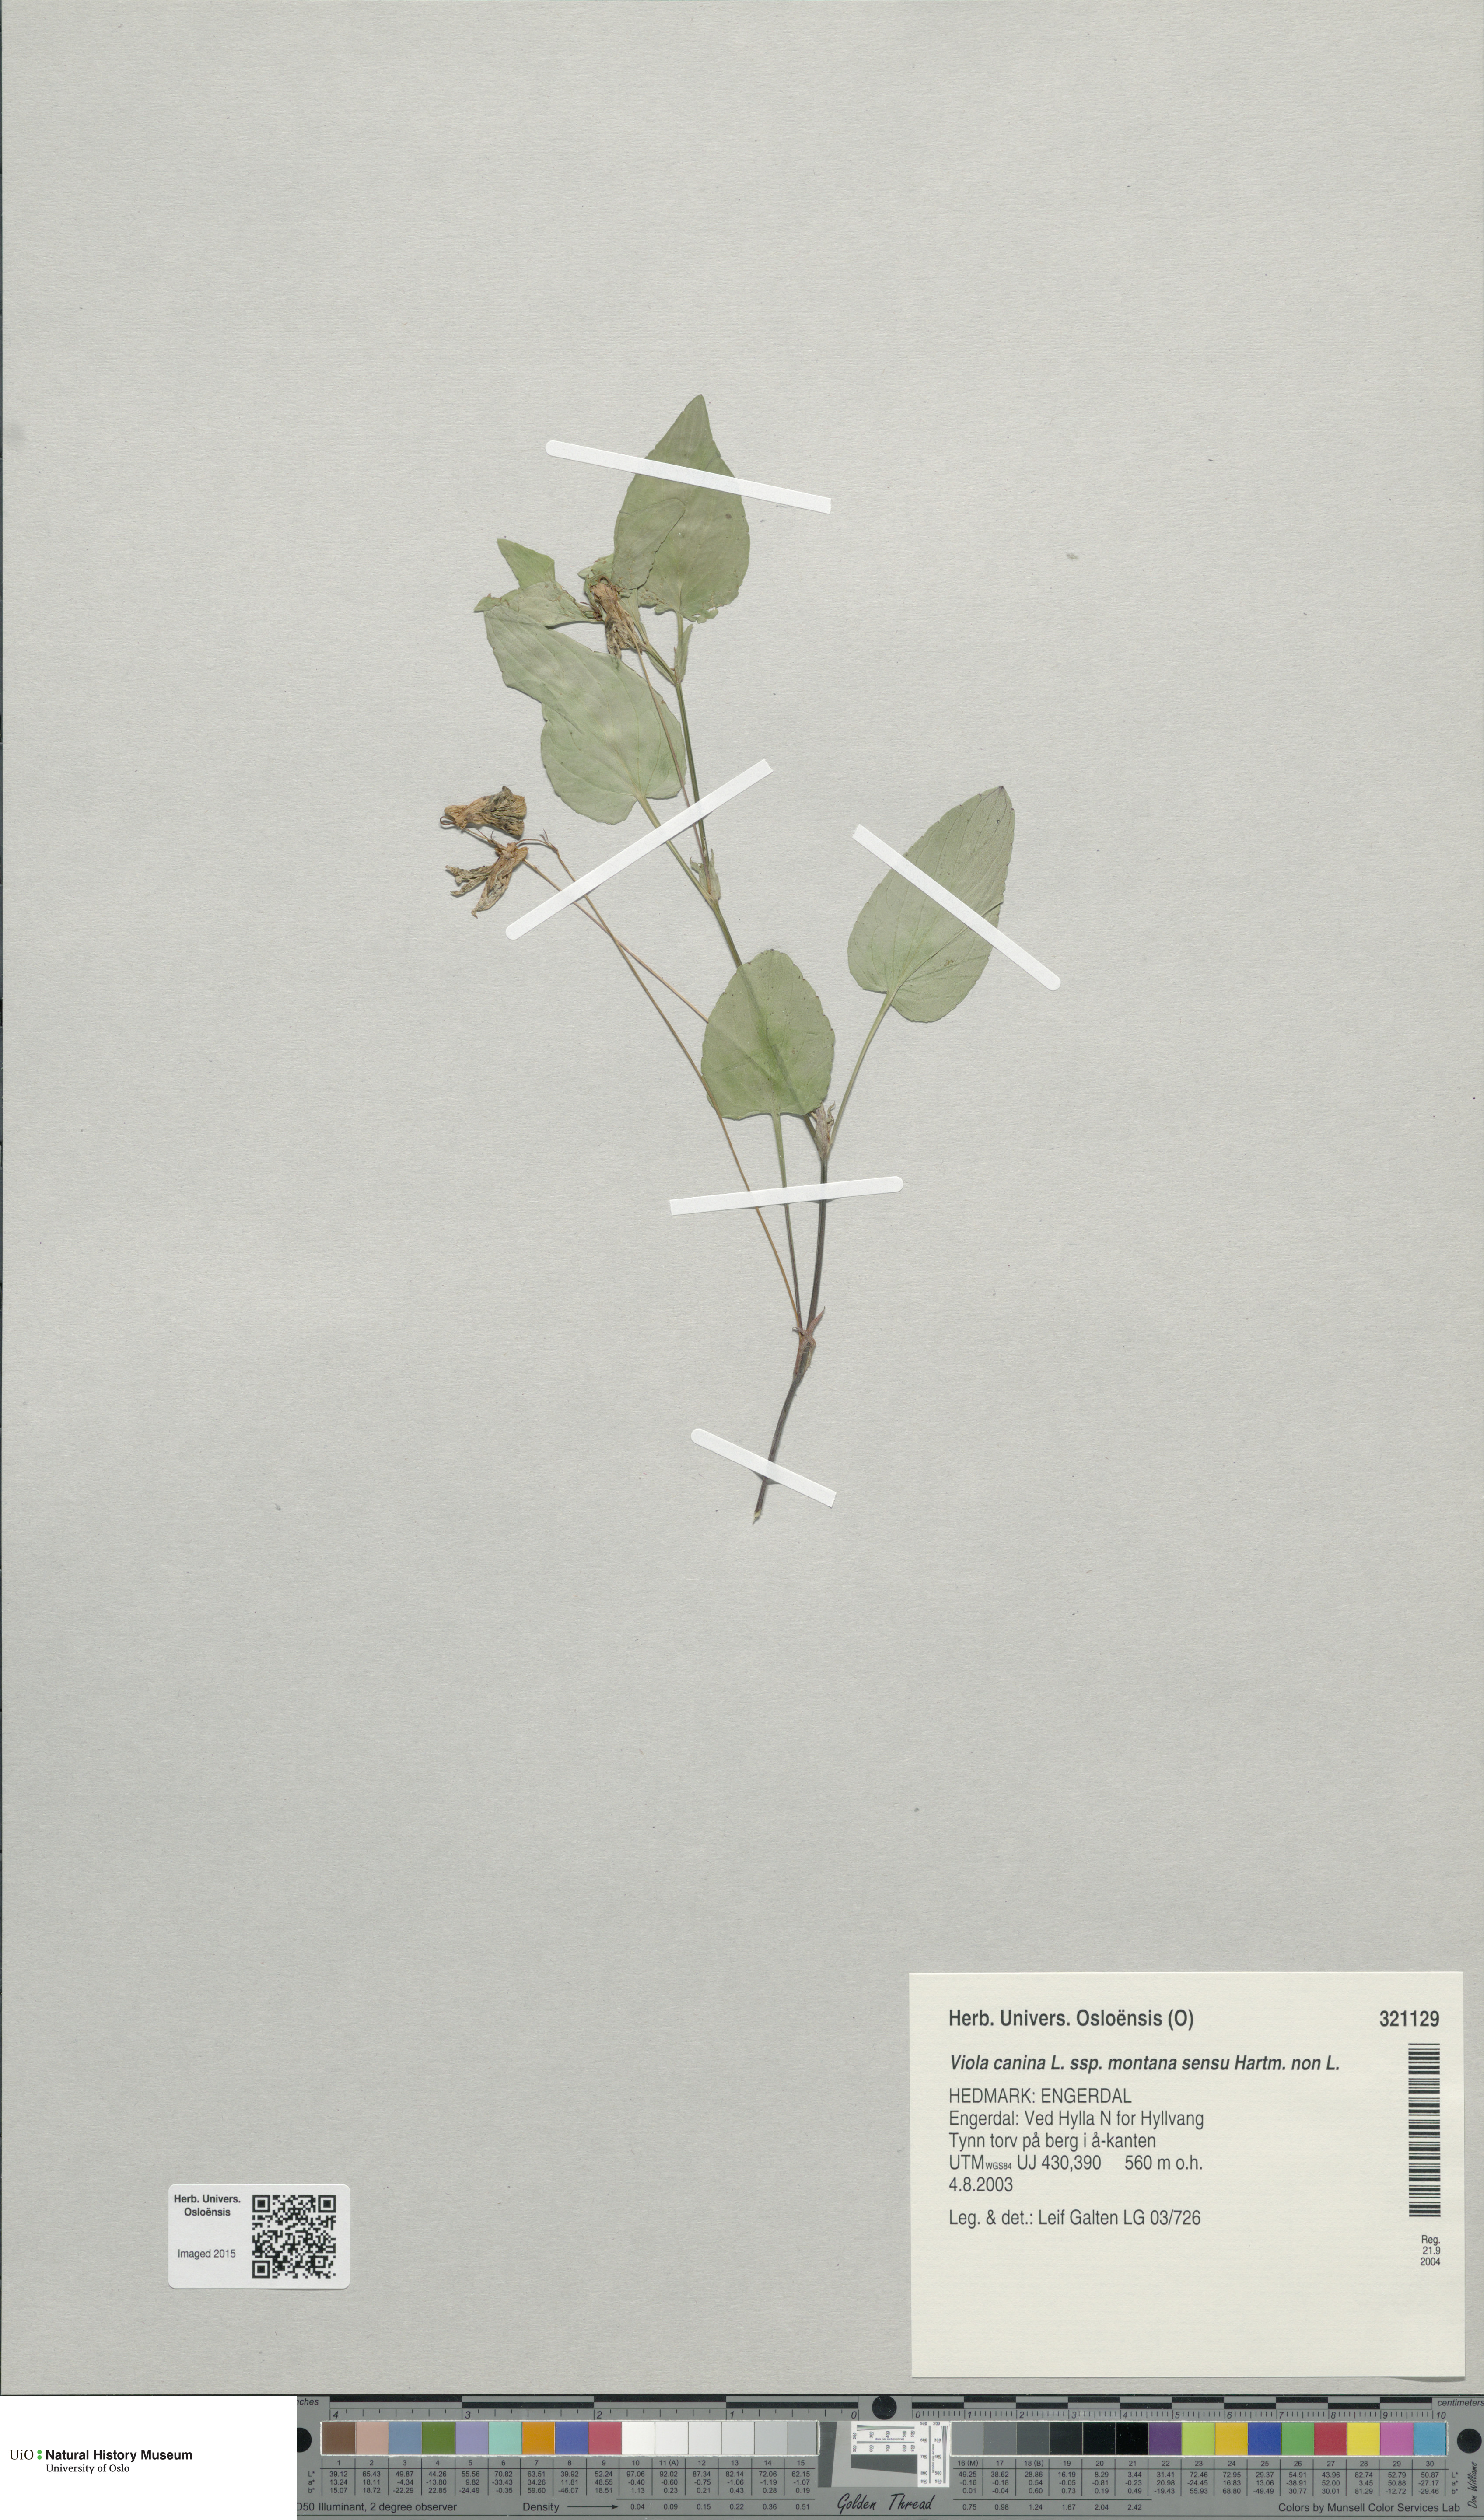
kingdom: Plantae
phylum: Tracheophyta
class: Magnoliopsida
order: Malpighiales
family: Violaceae
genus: Viola
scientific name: Viola ruppii
